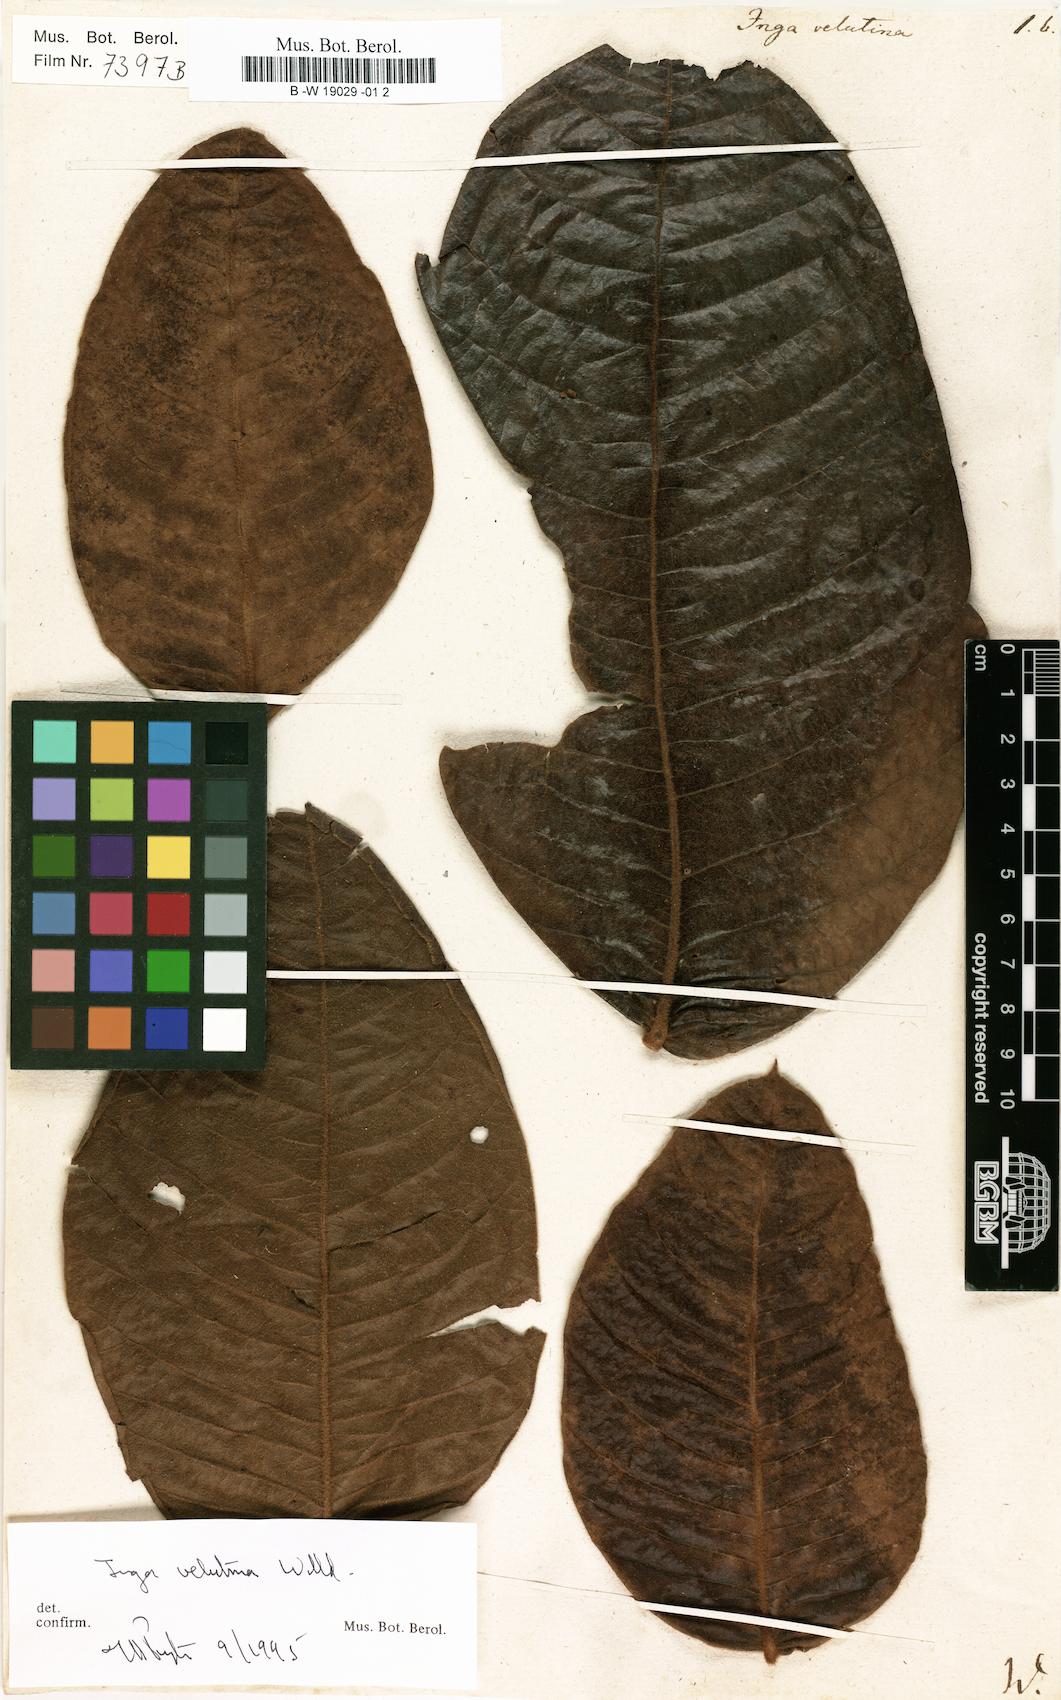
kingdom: Plantae
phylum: Tracheophyta
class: Magnoliopsida
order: Fabales
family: Fabaceae
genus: Inga
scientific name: Inga velutina
